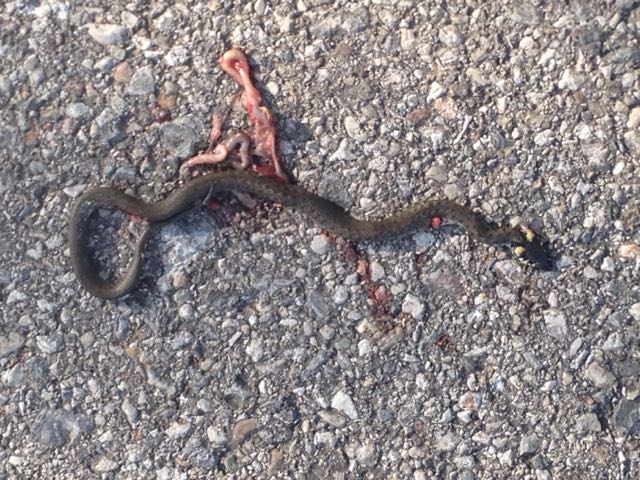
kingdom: Animalia
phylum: Chordata
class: Squamata
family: Colubridae
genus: Natrix
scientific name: Natrix natrix
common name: Grass snake
